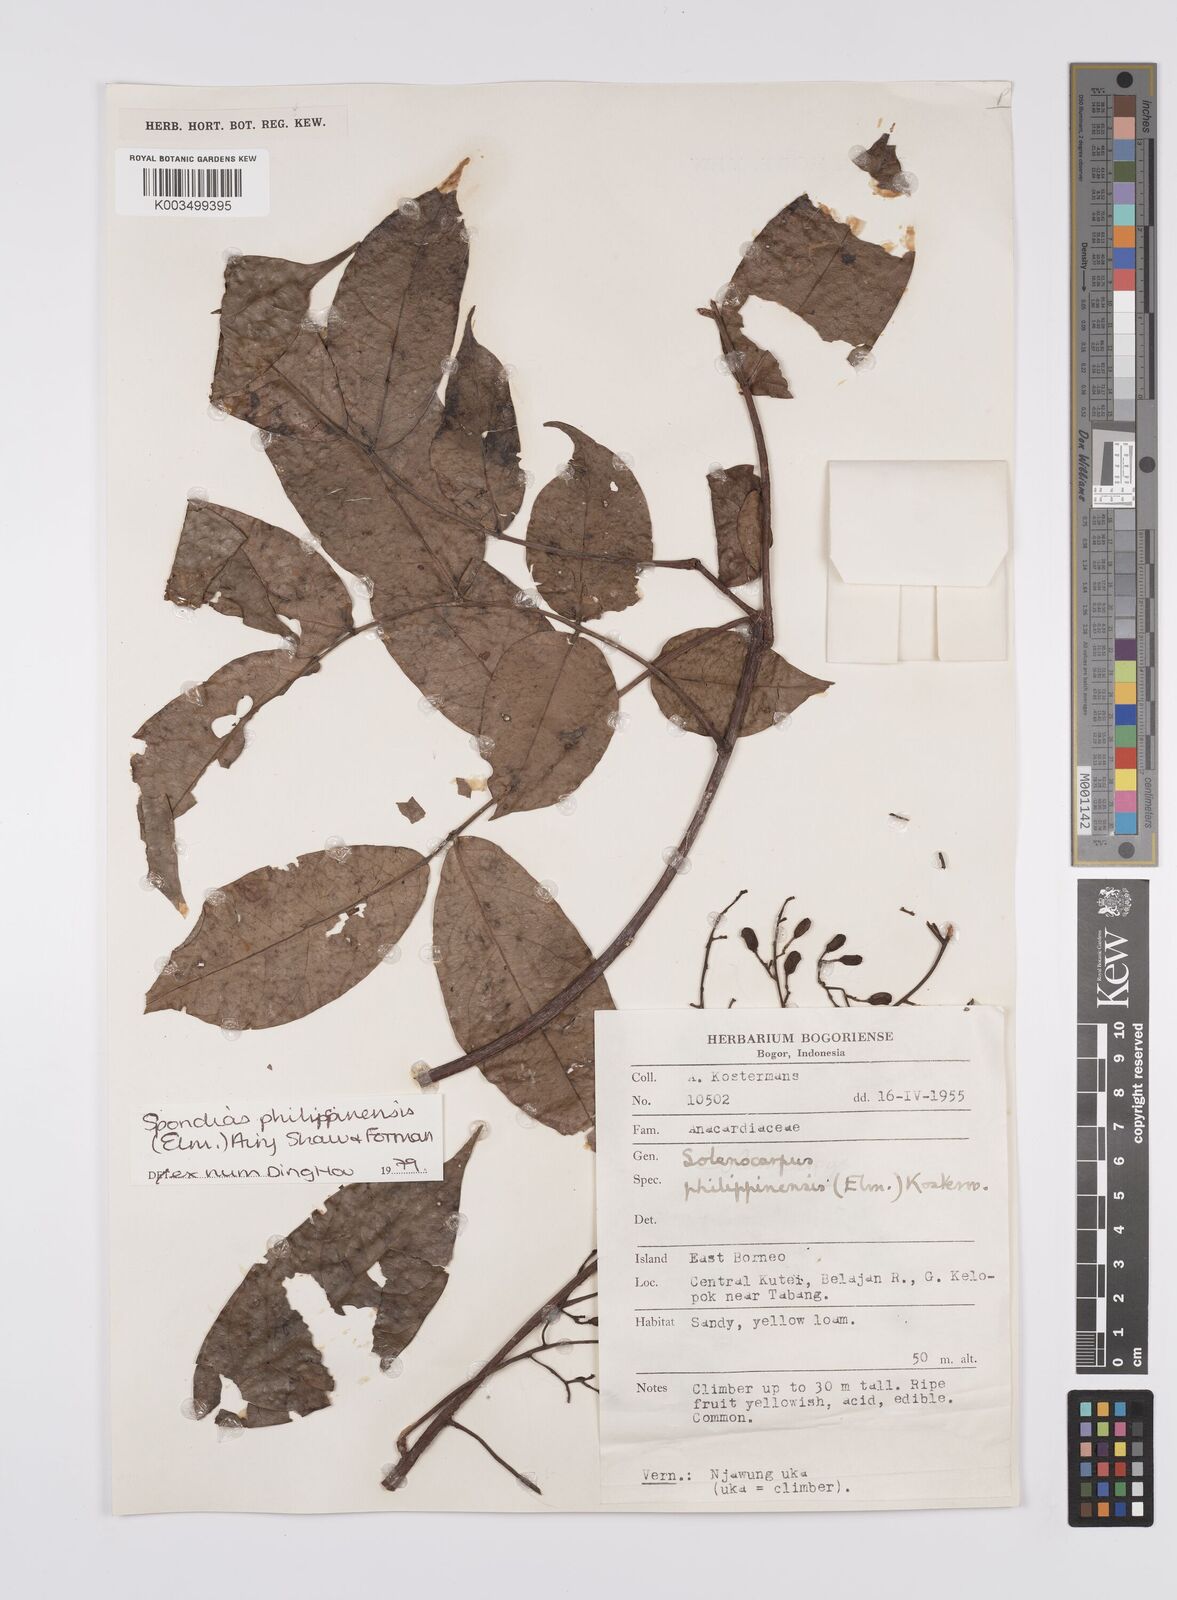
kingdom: Plantae
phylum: Tracheophyta
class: Magnoliopsida
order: Sapindales
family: Anacardiaceae
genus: Spondias
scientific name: Spondias philippinensis
